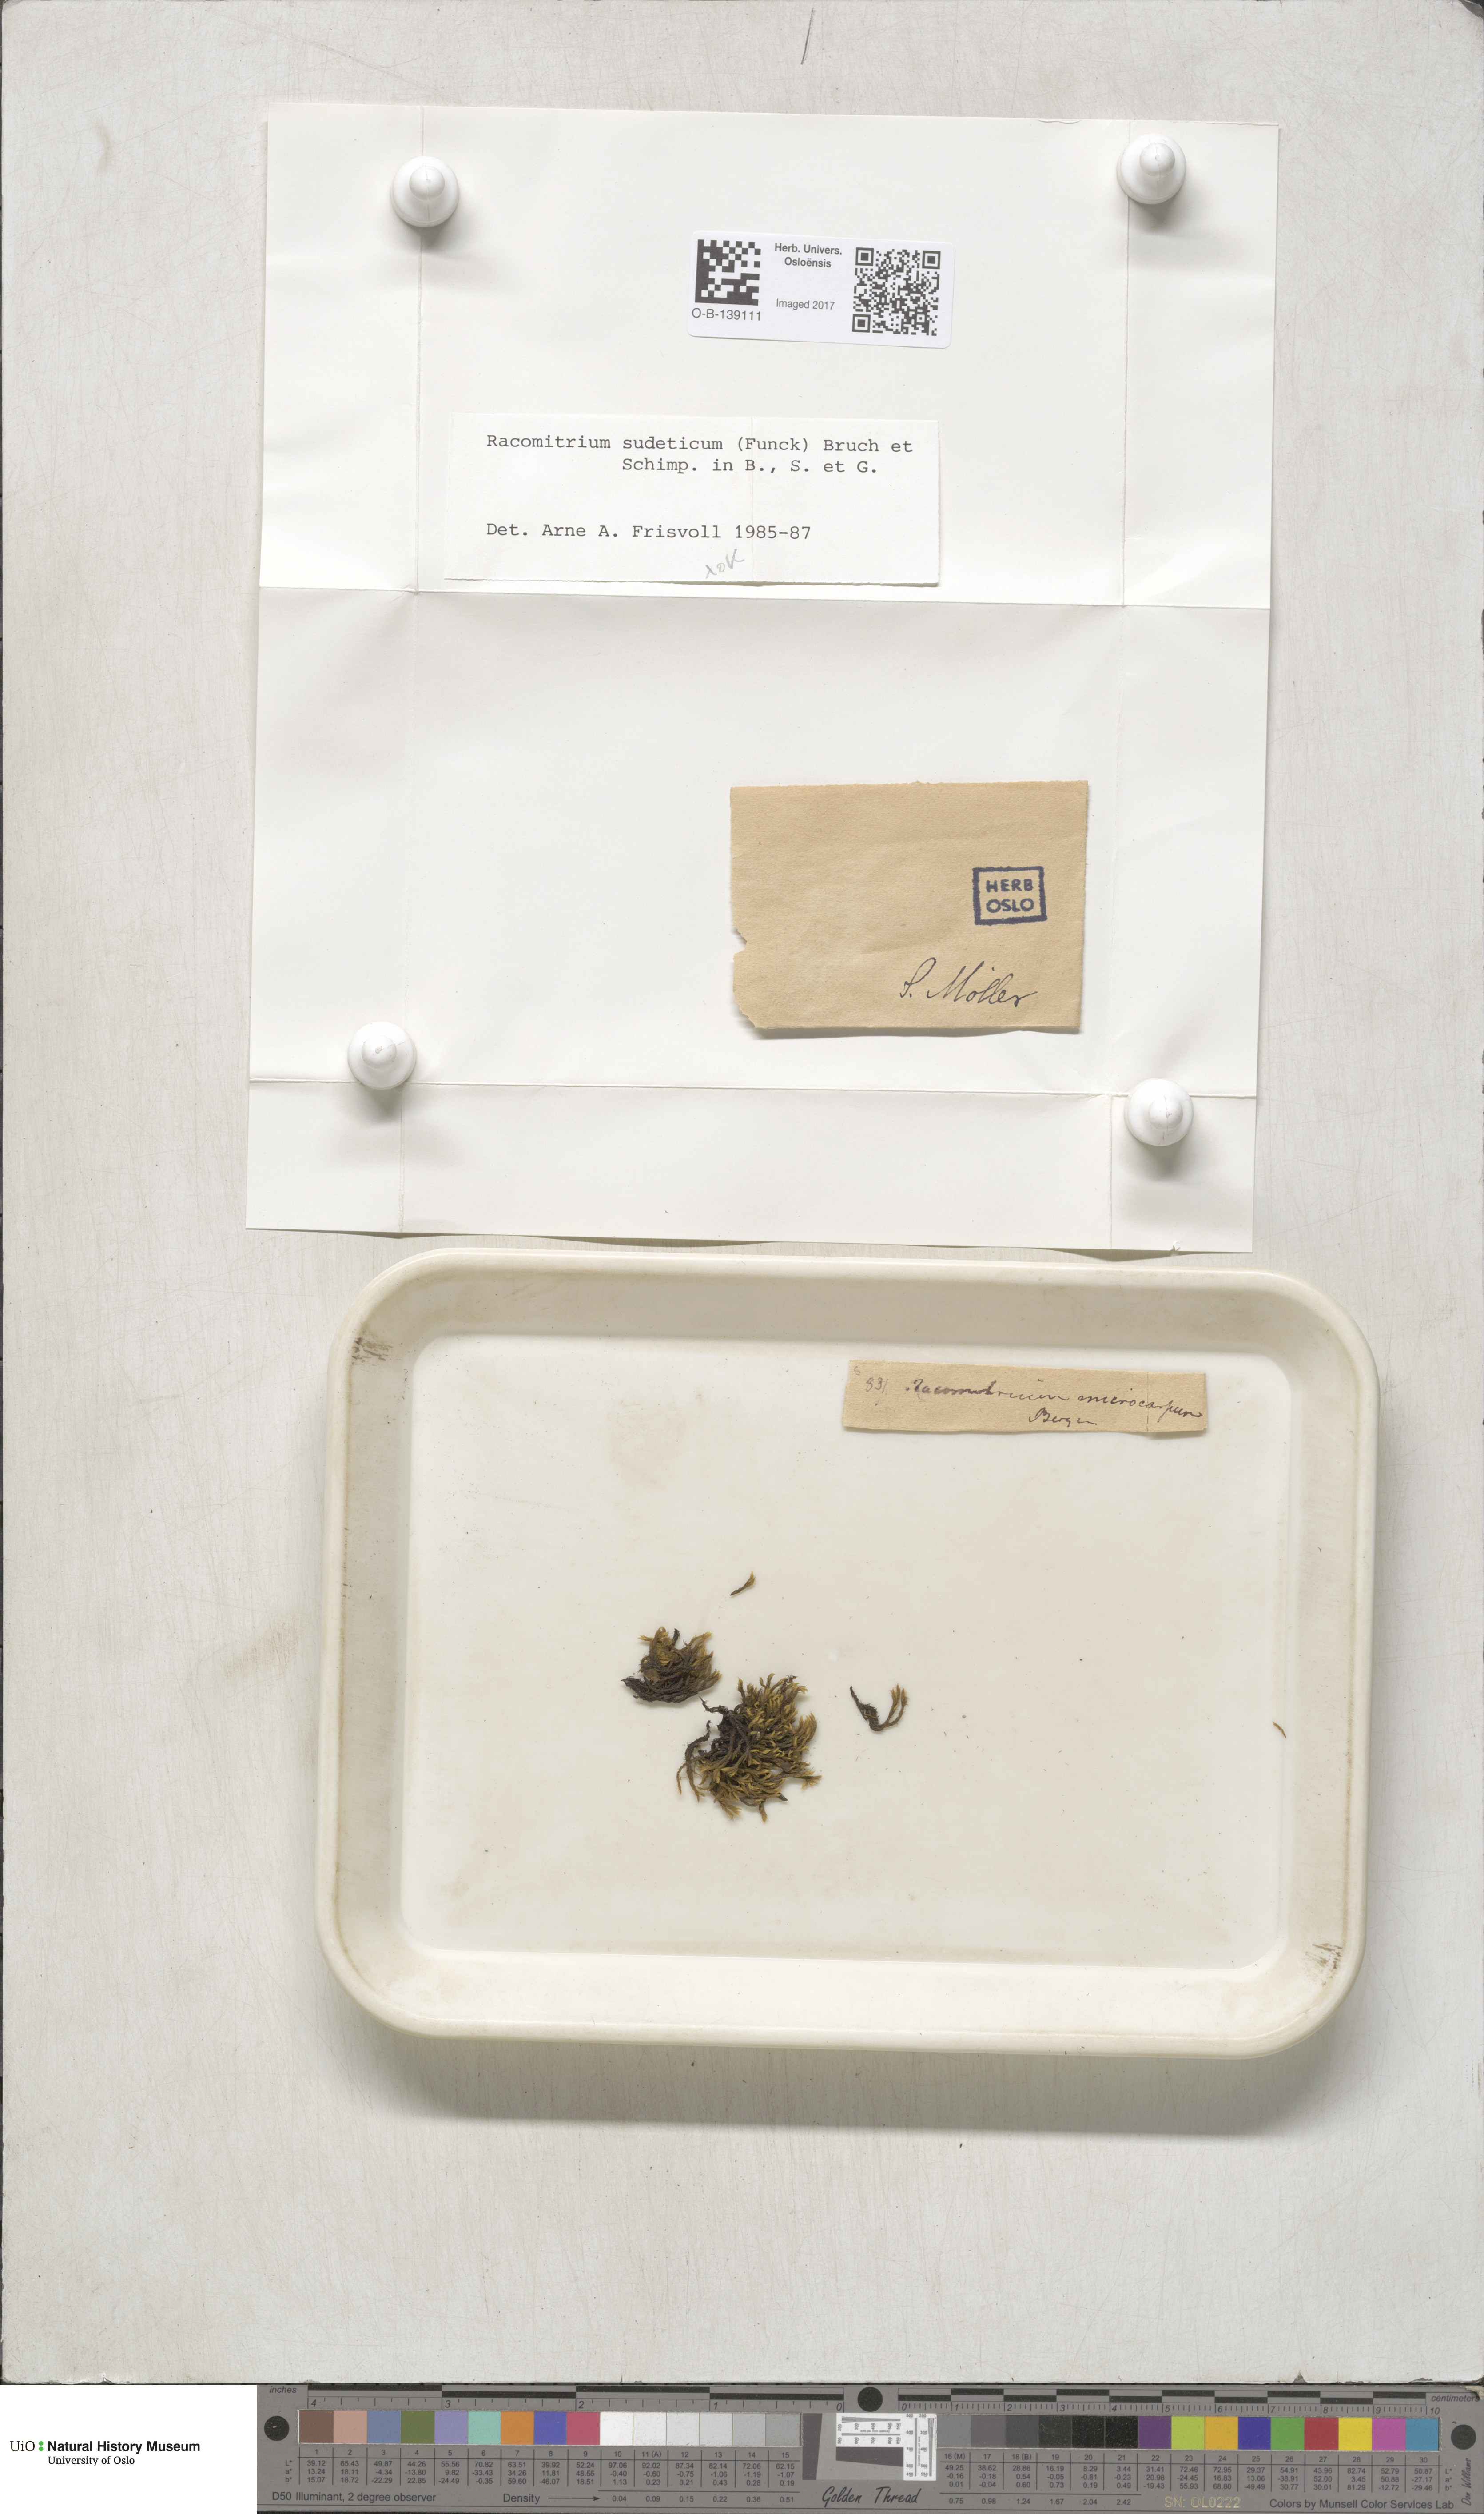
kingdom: Plantae
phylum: Bryophyta
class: Bryopsida
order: Grimmiales
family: Grimmiaceae
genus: Bucklandiella
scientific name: Bucklandiella sudetica
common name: Slender fringe-moss
